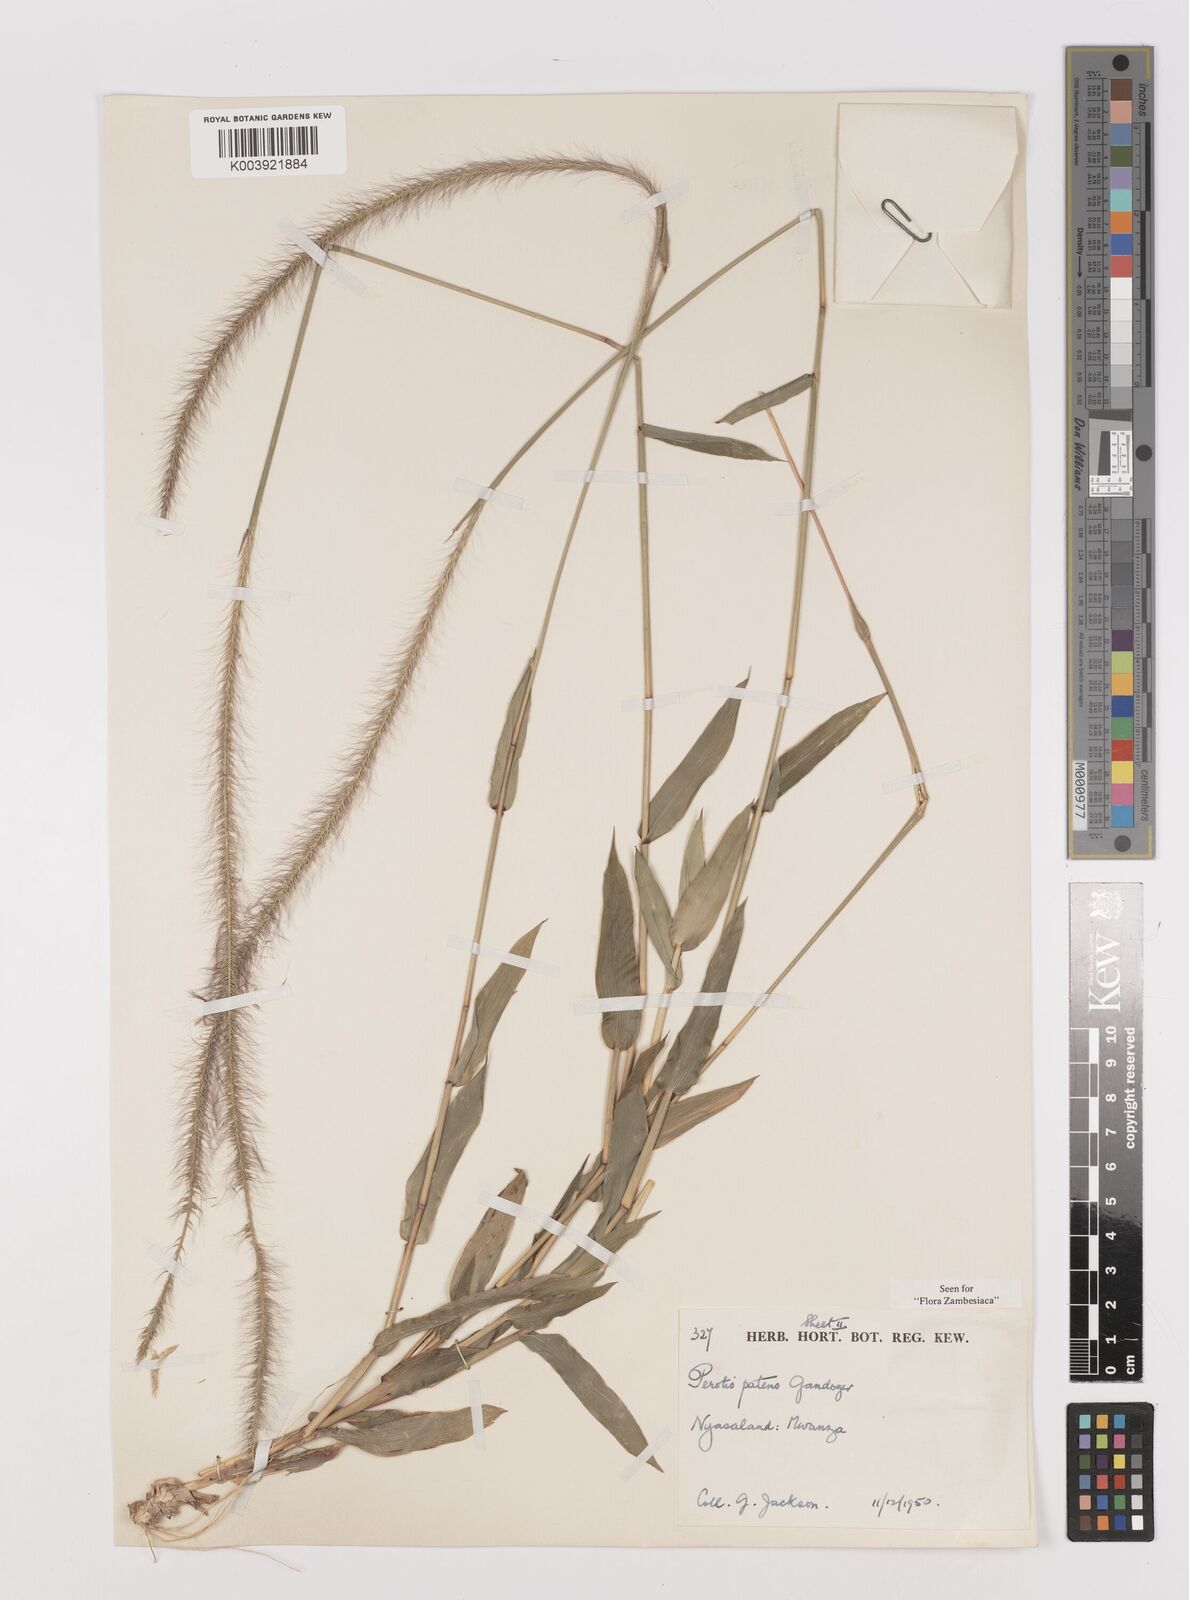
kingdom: Plantae
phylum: Tracheophyta
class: Liliopsida
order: Poales
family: Poaceae
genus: Perotis
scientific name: Perotis patens
